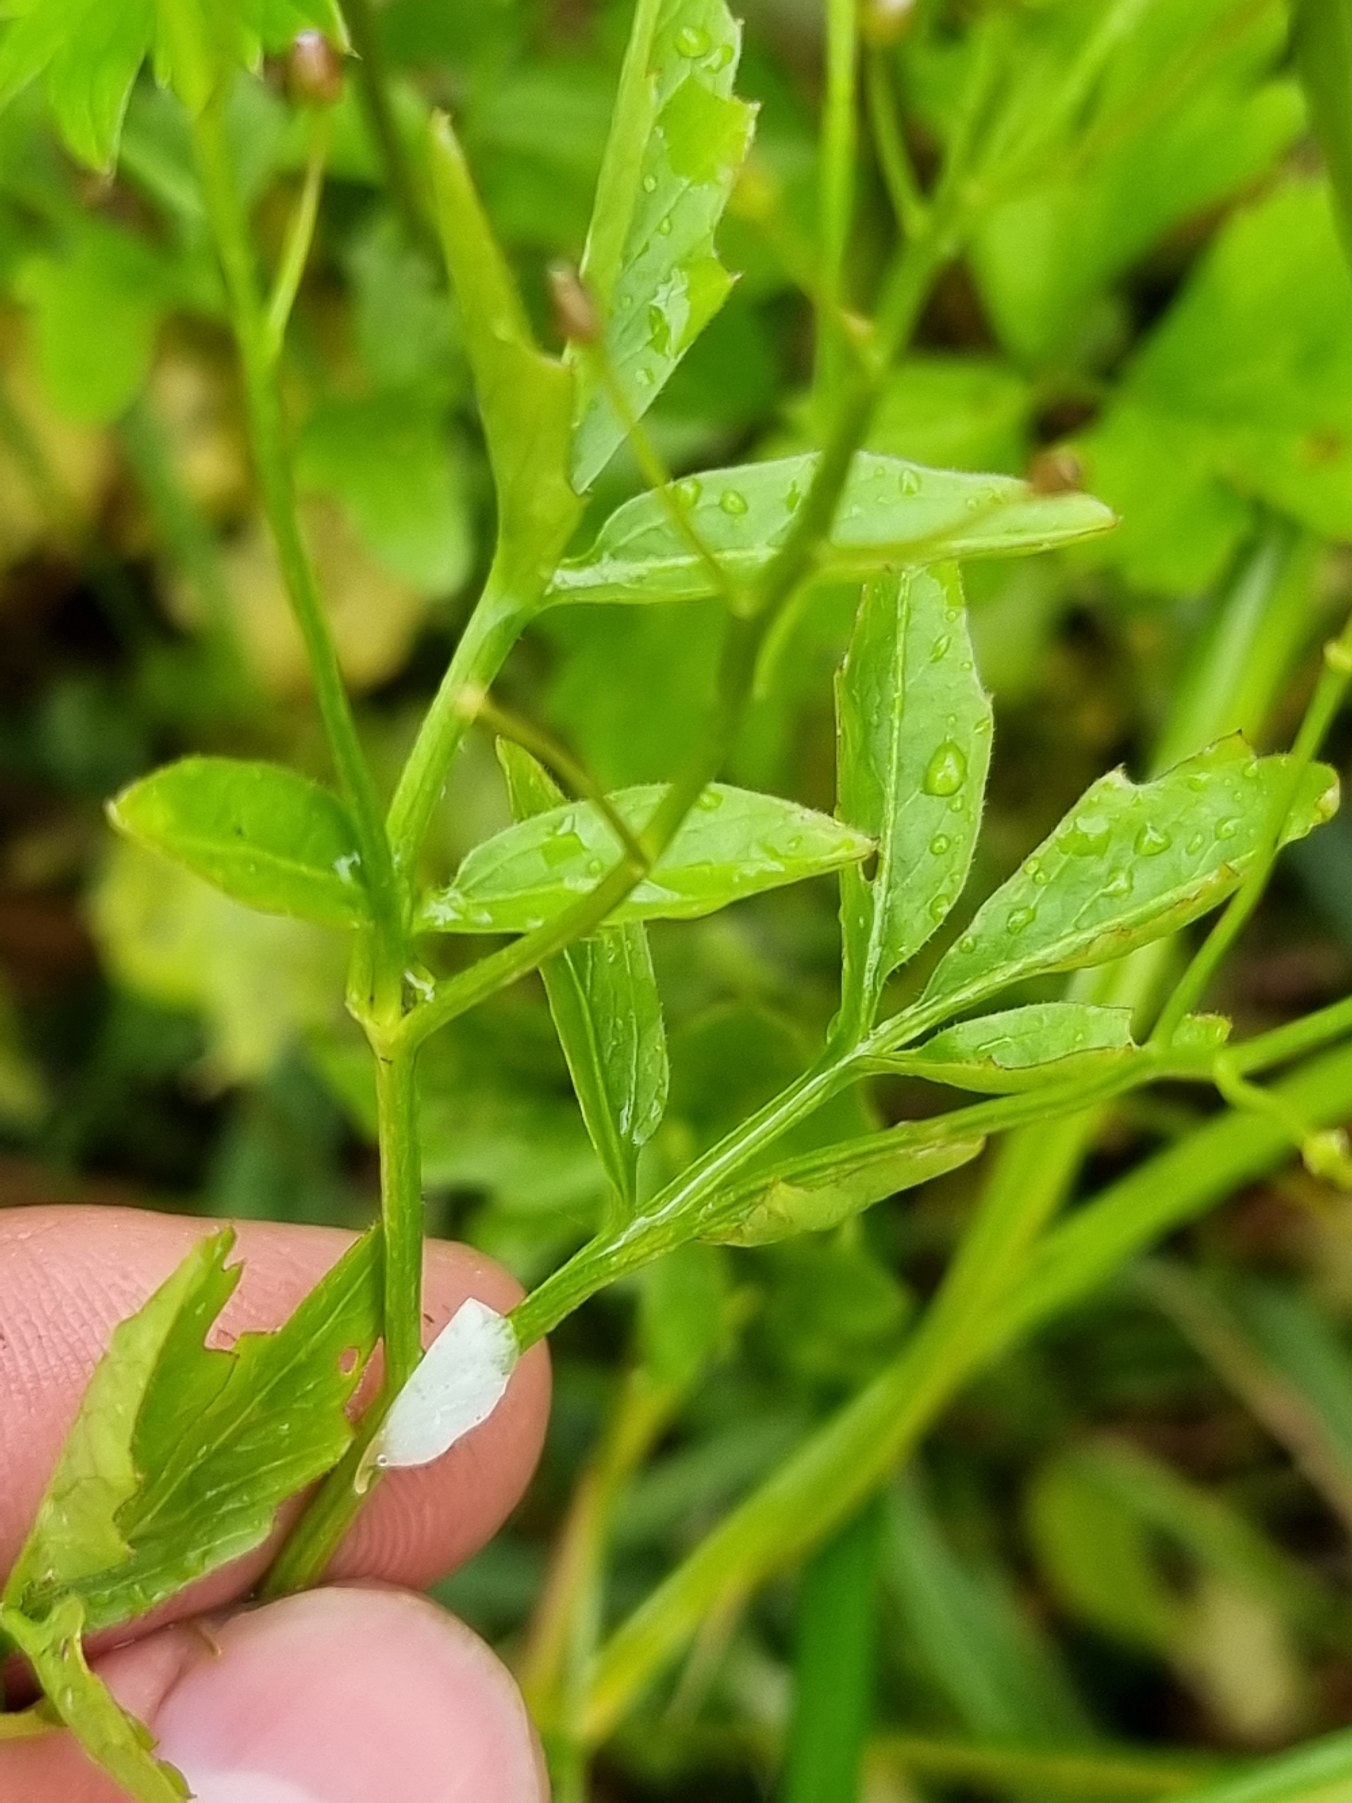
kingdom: Plantae
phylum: Tracheophyta
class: Magnoliopsida
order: Brassicales
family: Brassicaceae
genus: Cardamine
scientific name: Cardamine amara
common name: Vandkarse
